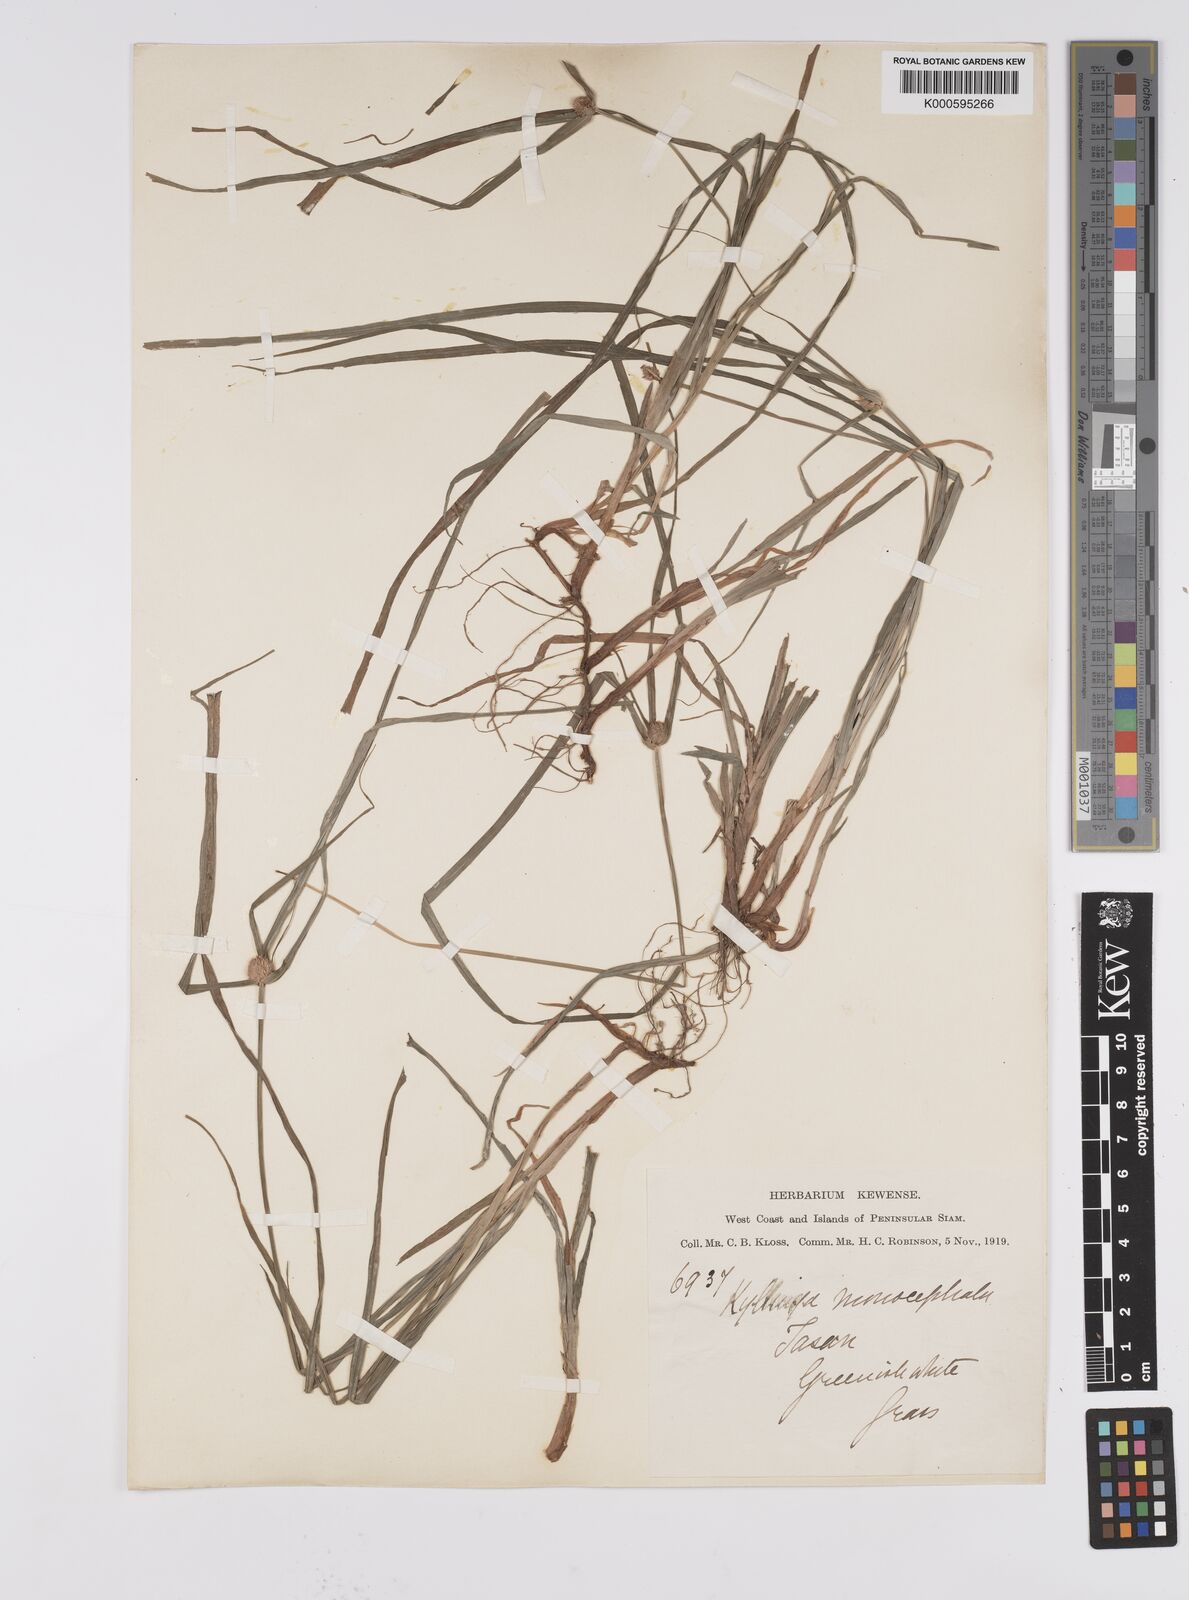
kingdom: Plantae
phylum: Tracheophyta
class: Liliopsida
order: Poales
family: Cyperaceae
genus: Cyperus
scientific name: Cyperus mindorensis
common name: Flatsedge
